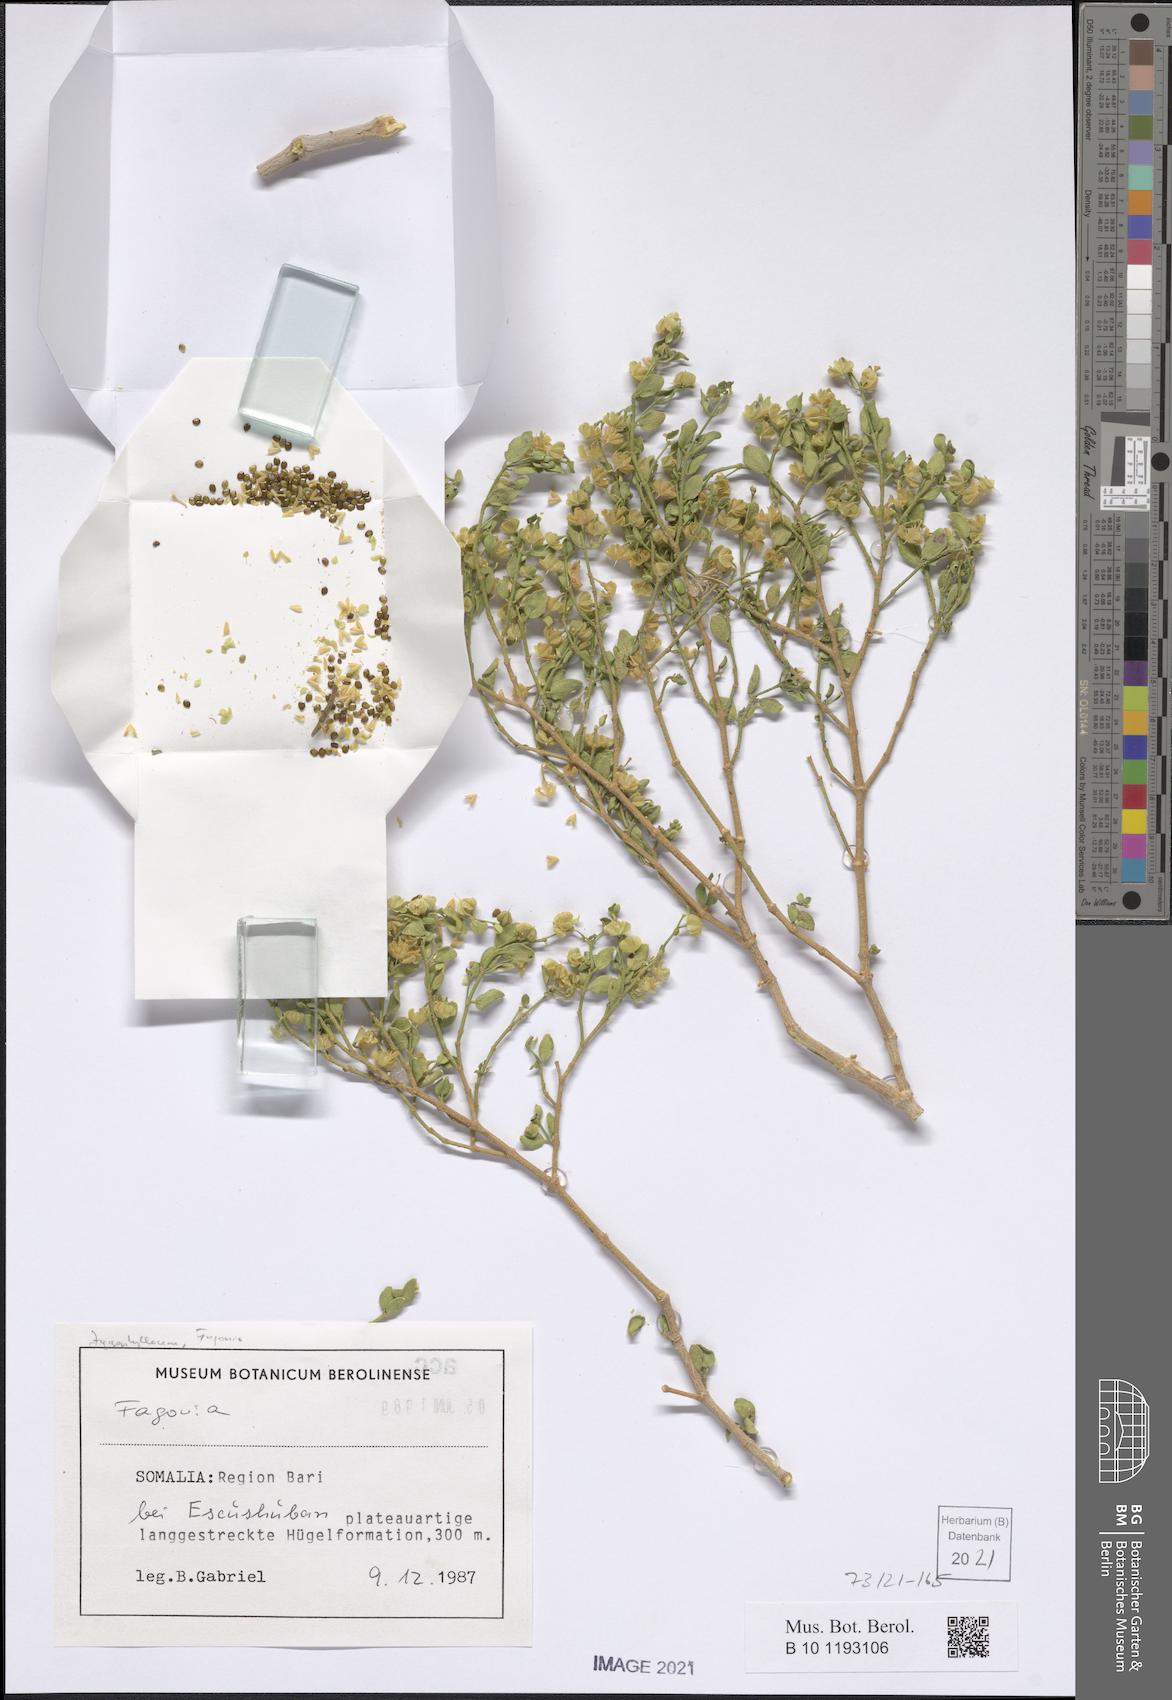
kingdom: Plantae
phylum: Tracheophyta
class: Magnoliopsida
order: Zygophyllales
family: Zygophyllaceae
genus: Fagonia
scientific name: Fagonia
